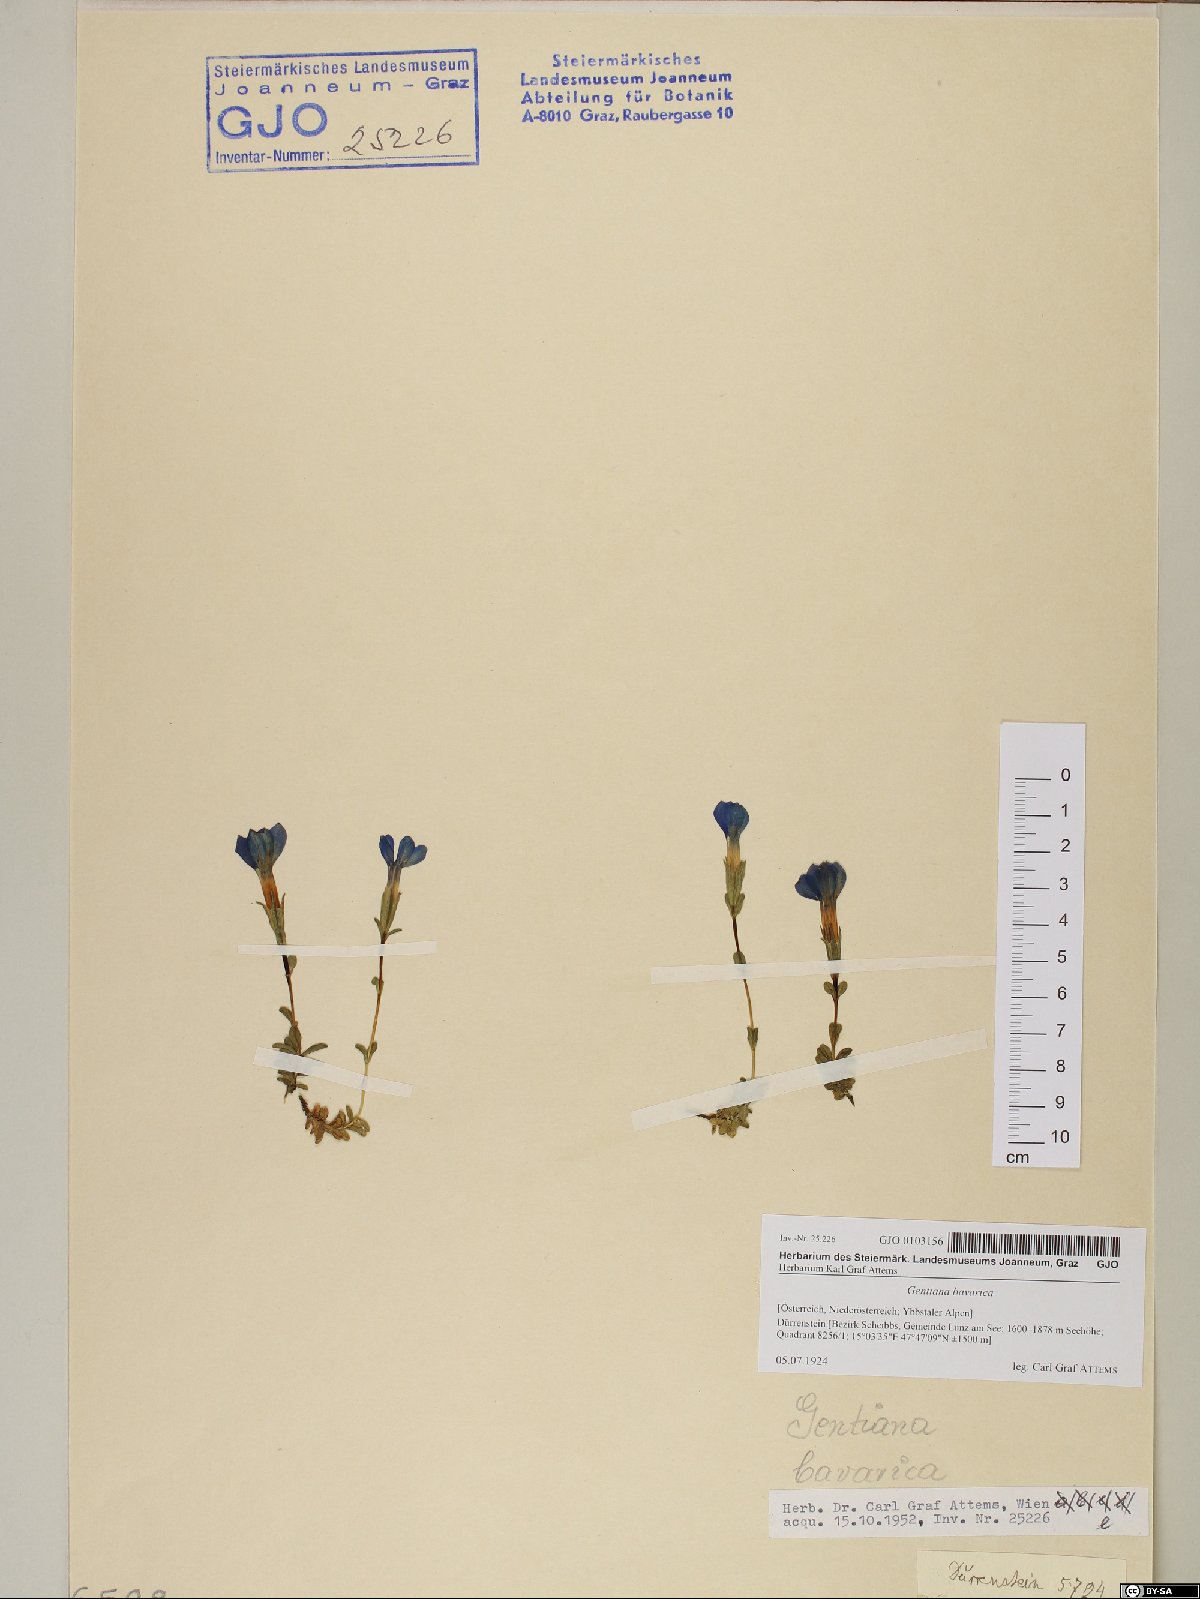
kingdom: Plantae
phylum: Tracheophyta
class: Magnoliopsida
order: Gentianales
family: Gentianaceae
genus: Gentiana
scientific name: Gentiana bavarica
